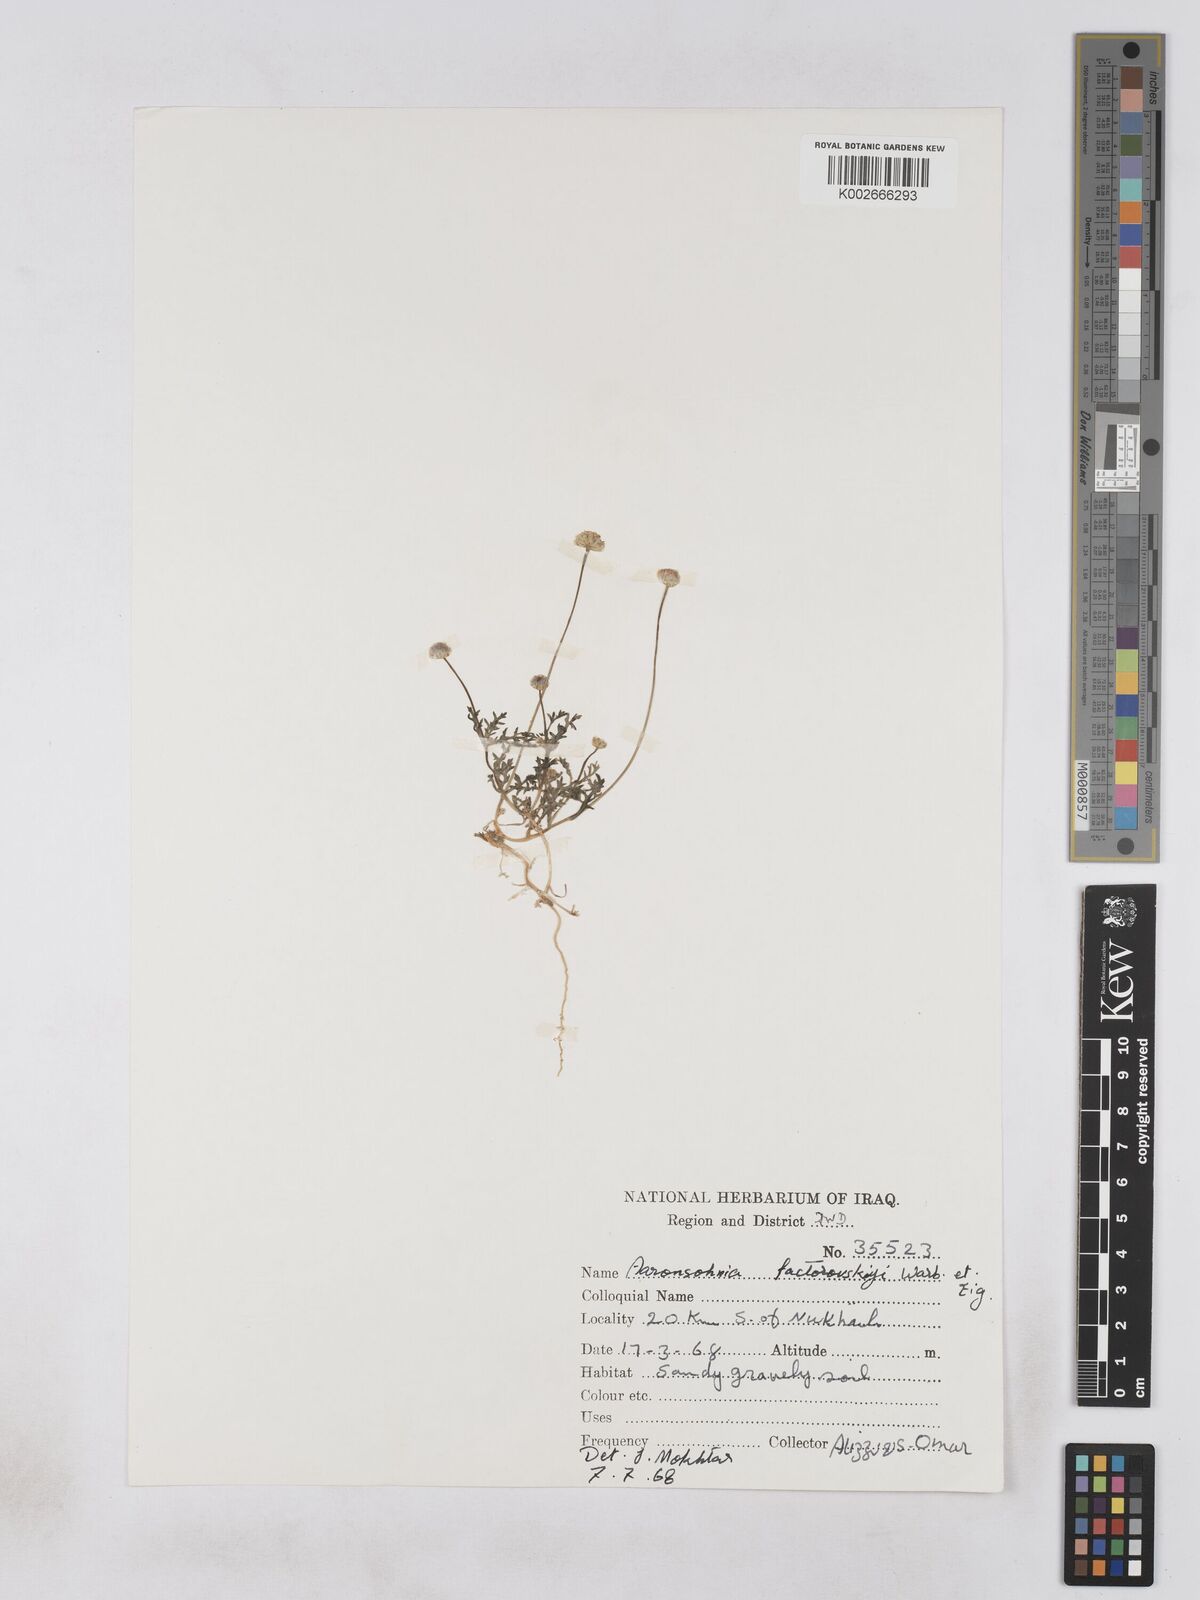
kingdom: Plantae
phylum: Tracheophyta
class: Magnoliopsida
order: Asterales
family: Asteraceae
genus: Otoglyphis
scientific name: Otoglyphis factorovskyi
